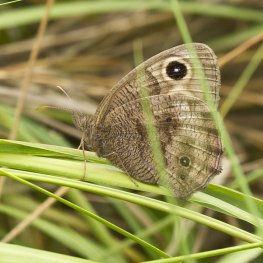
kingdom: Animalia
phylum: Arthropoda
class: Insecta
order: Lepidoptera
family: Nymphalidae
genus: Cercyonis
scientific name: Cercyonis pegala
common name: Common Wood-Nymph
